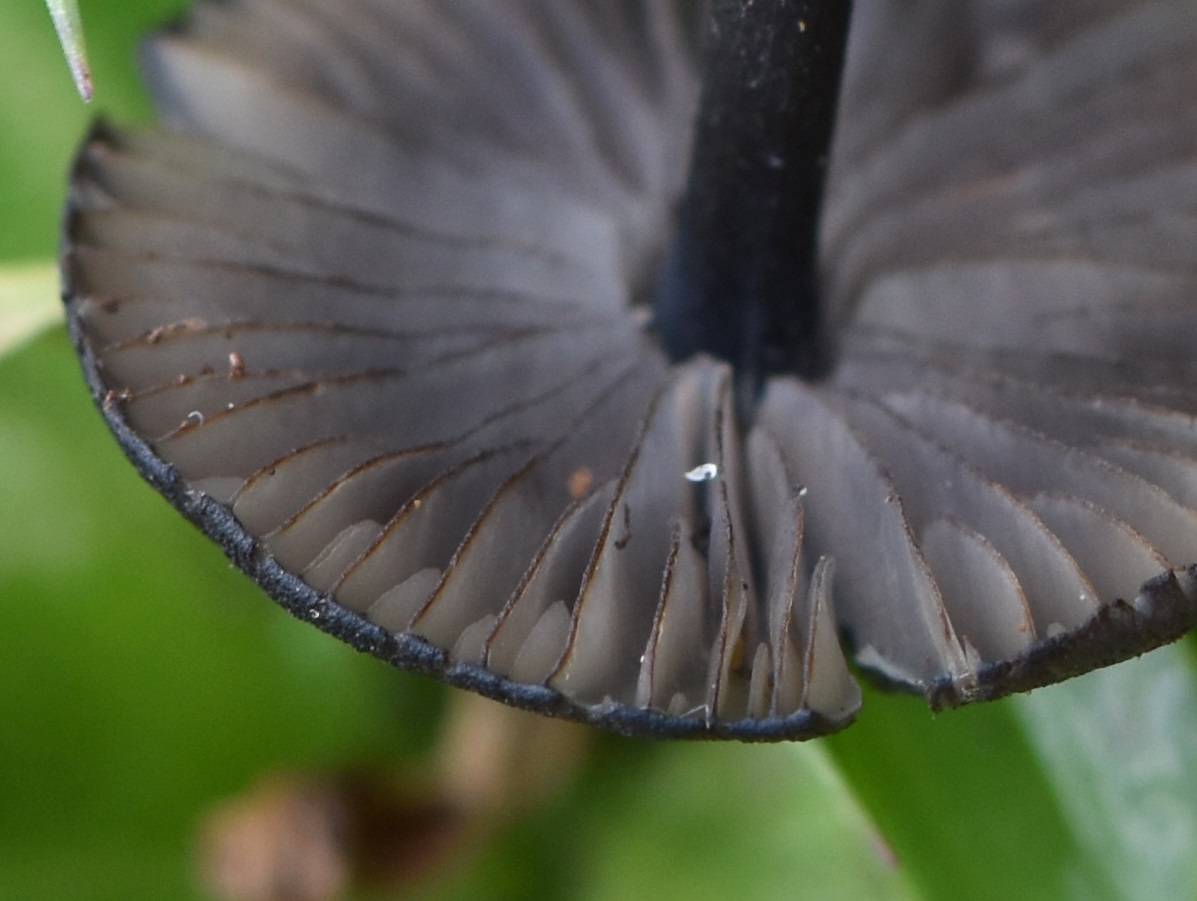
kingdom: Fungi
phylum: Basidiomycota
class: Agaricomycetes
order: Agaricales
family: Entolomataceae
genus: Entoloma
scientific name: Entoloma
